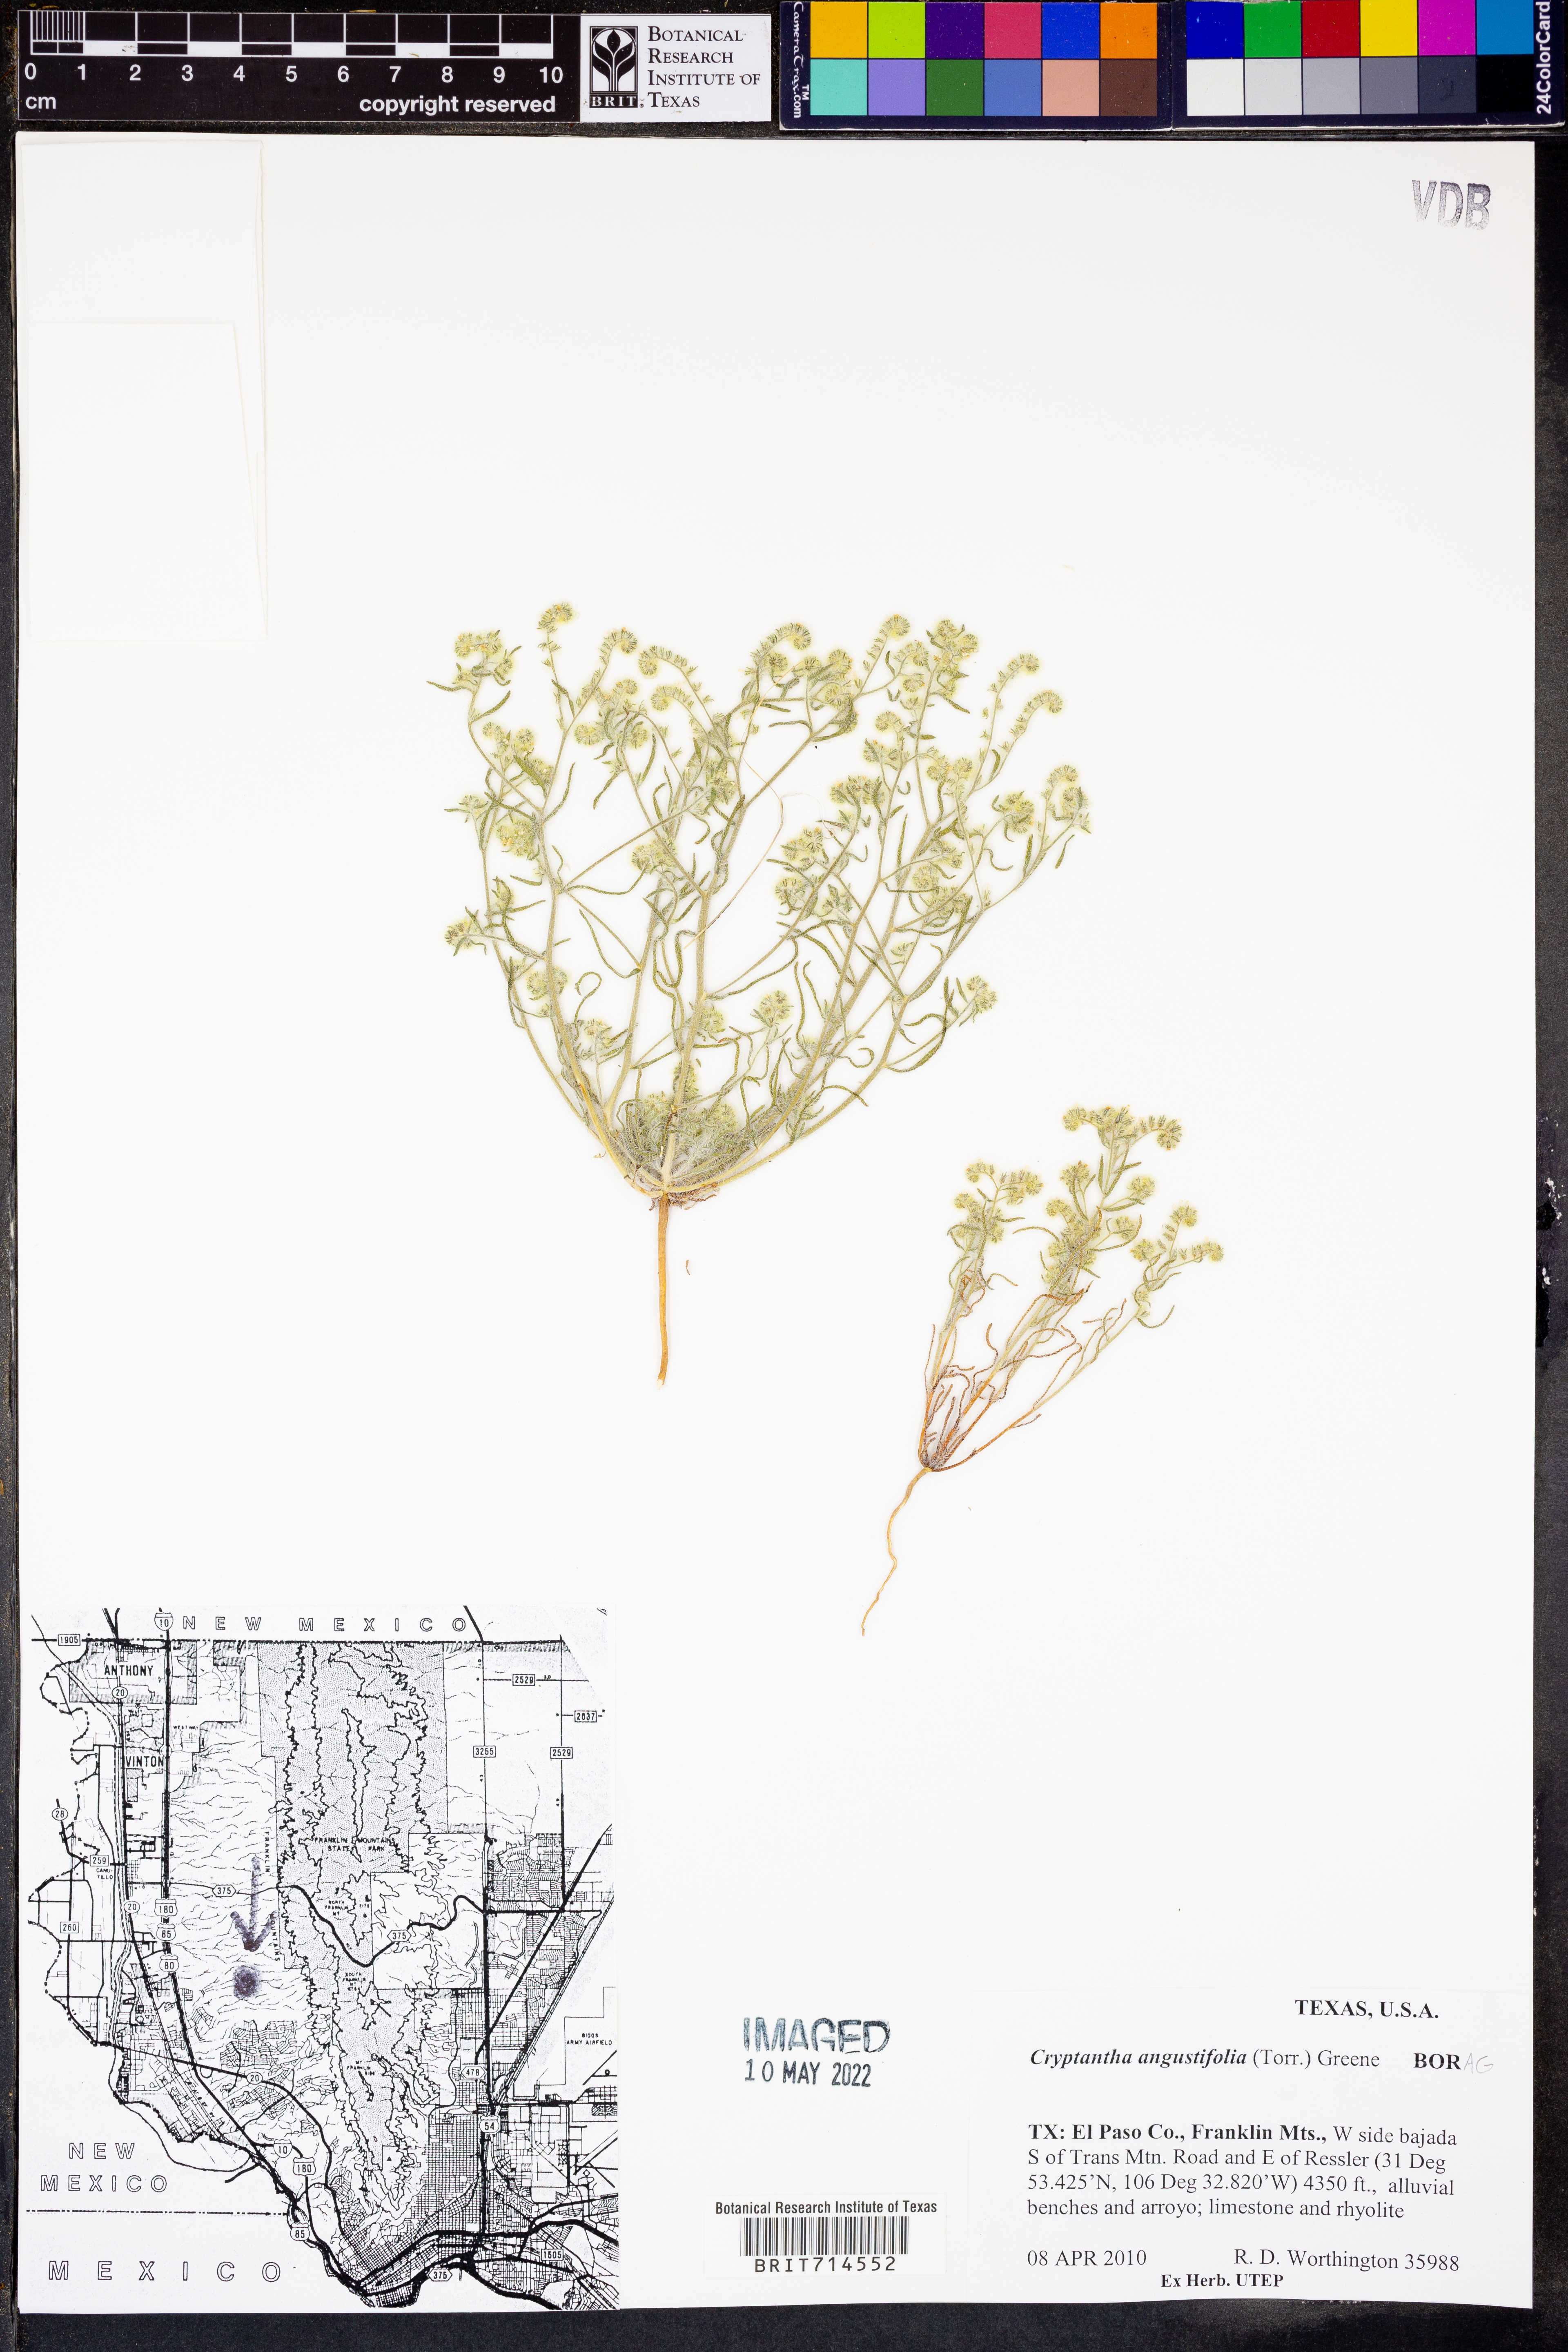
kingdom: Plantae
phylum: Tracheophyta
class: Magnoliopsida
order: Boraginales
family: Boraginaceae
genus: Johnstonella
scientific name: Johnstonella angustifolia
